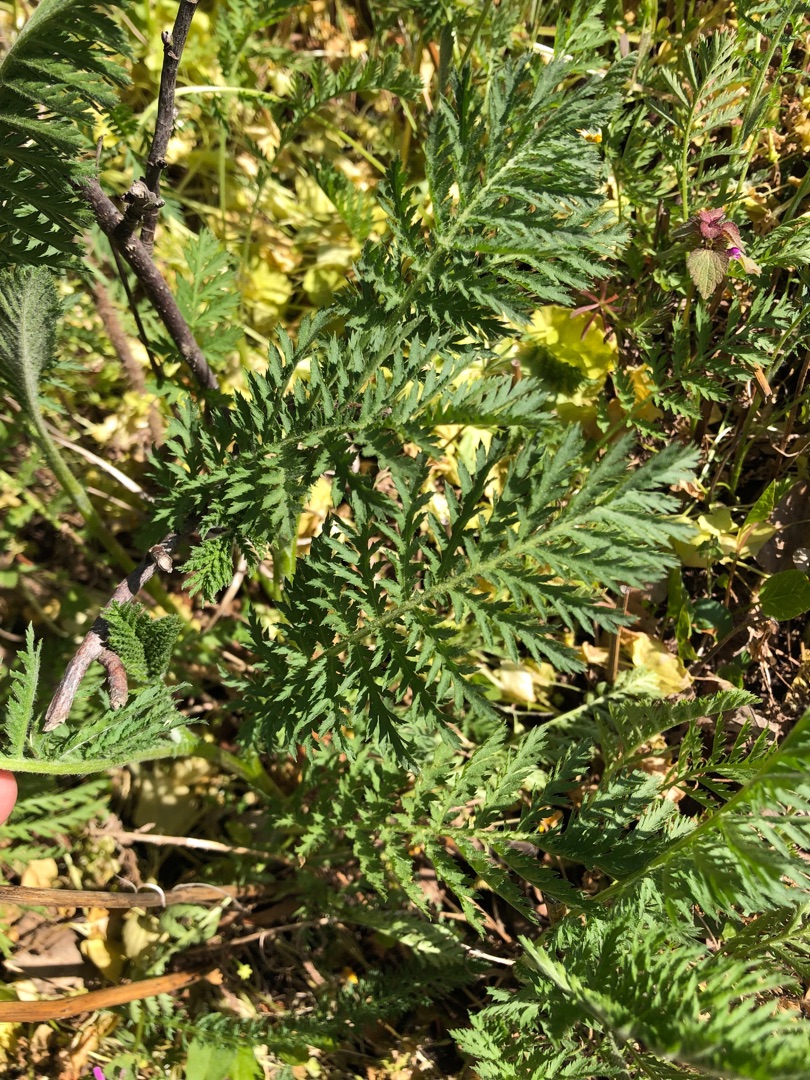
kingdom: Plantae
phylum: Tracheophyta
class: Magnoliopsida
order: Asterales
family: Asteraceae
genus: Tanacetum
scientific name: Tanacetum vulgare
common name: Rejnfan
